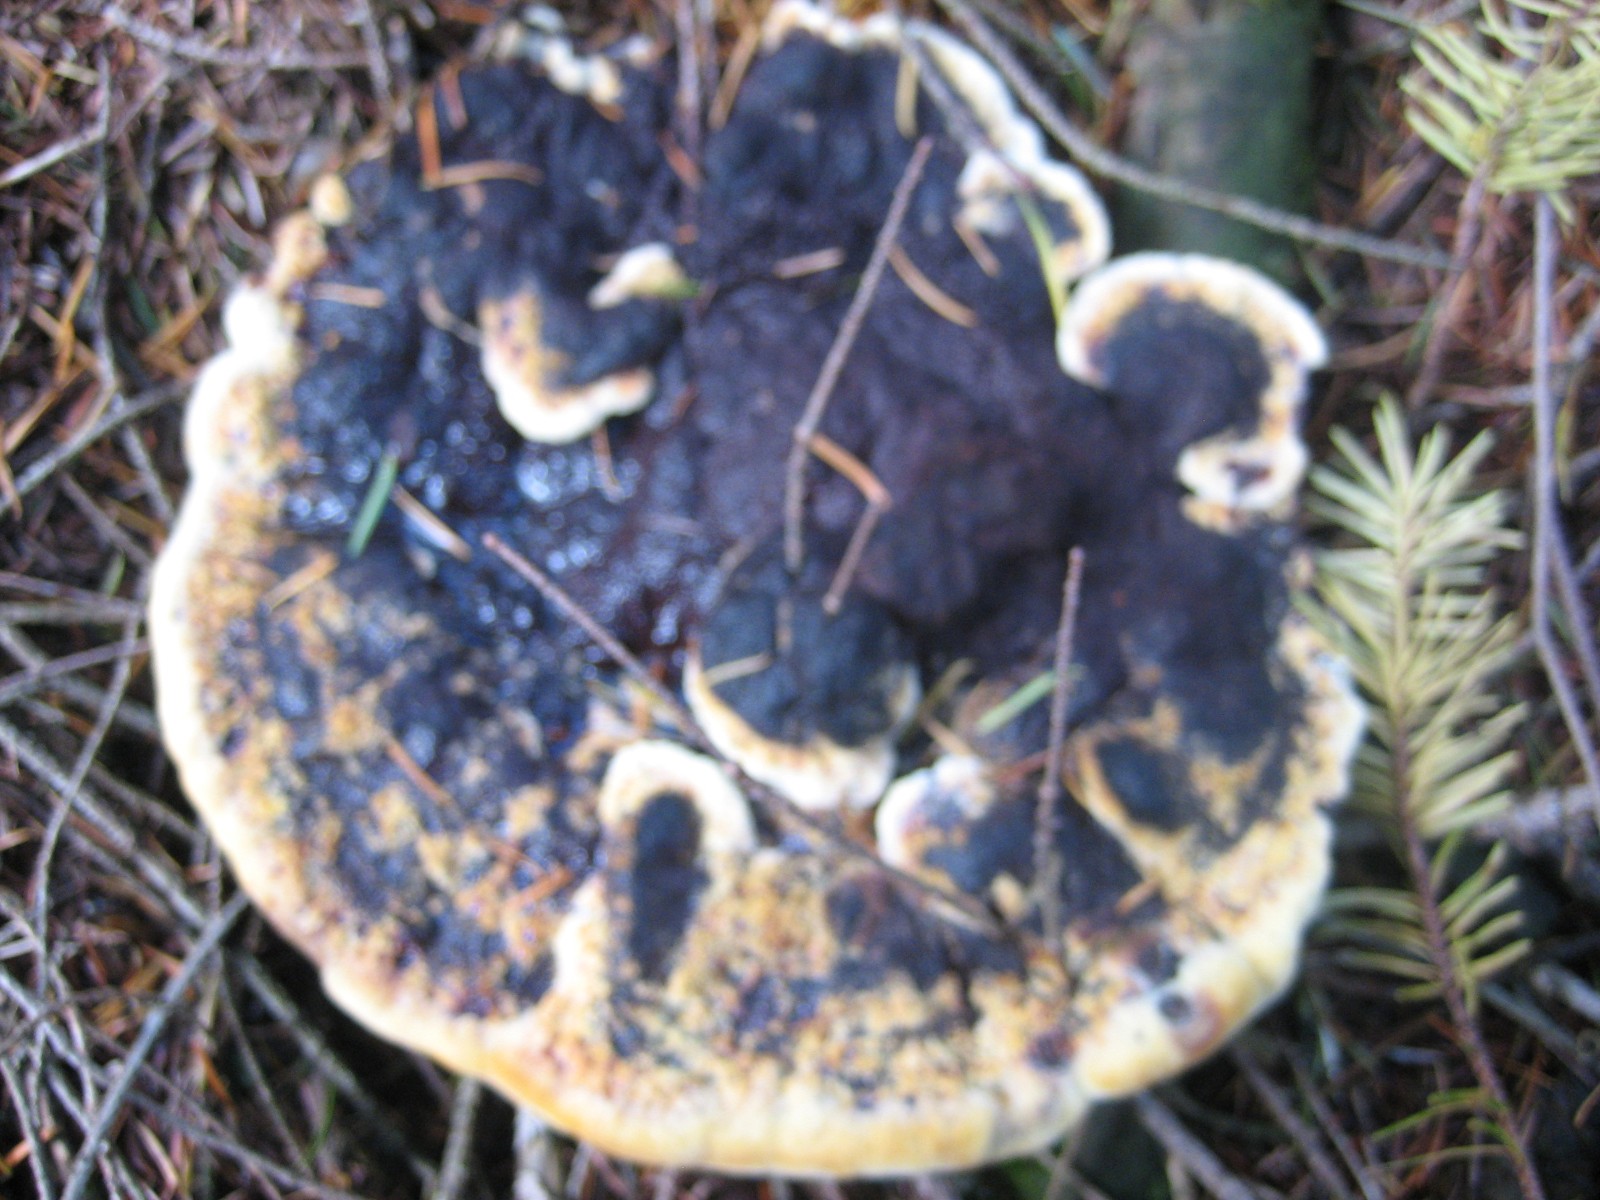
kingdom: Fungi
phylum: Basidiomycota
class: Agaricomycetes
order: Polyporales
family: Laetiporaceae
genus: Phaeolus
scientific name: Phaeolus schweinitzii
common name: brunporesvamp
